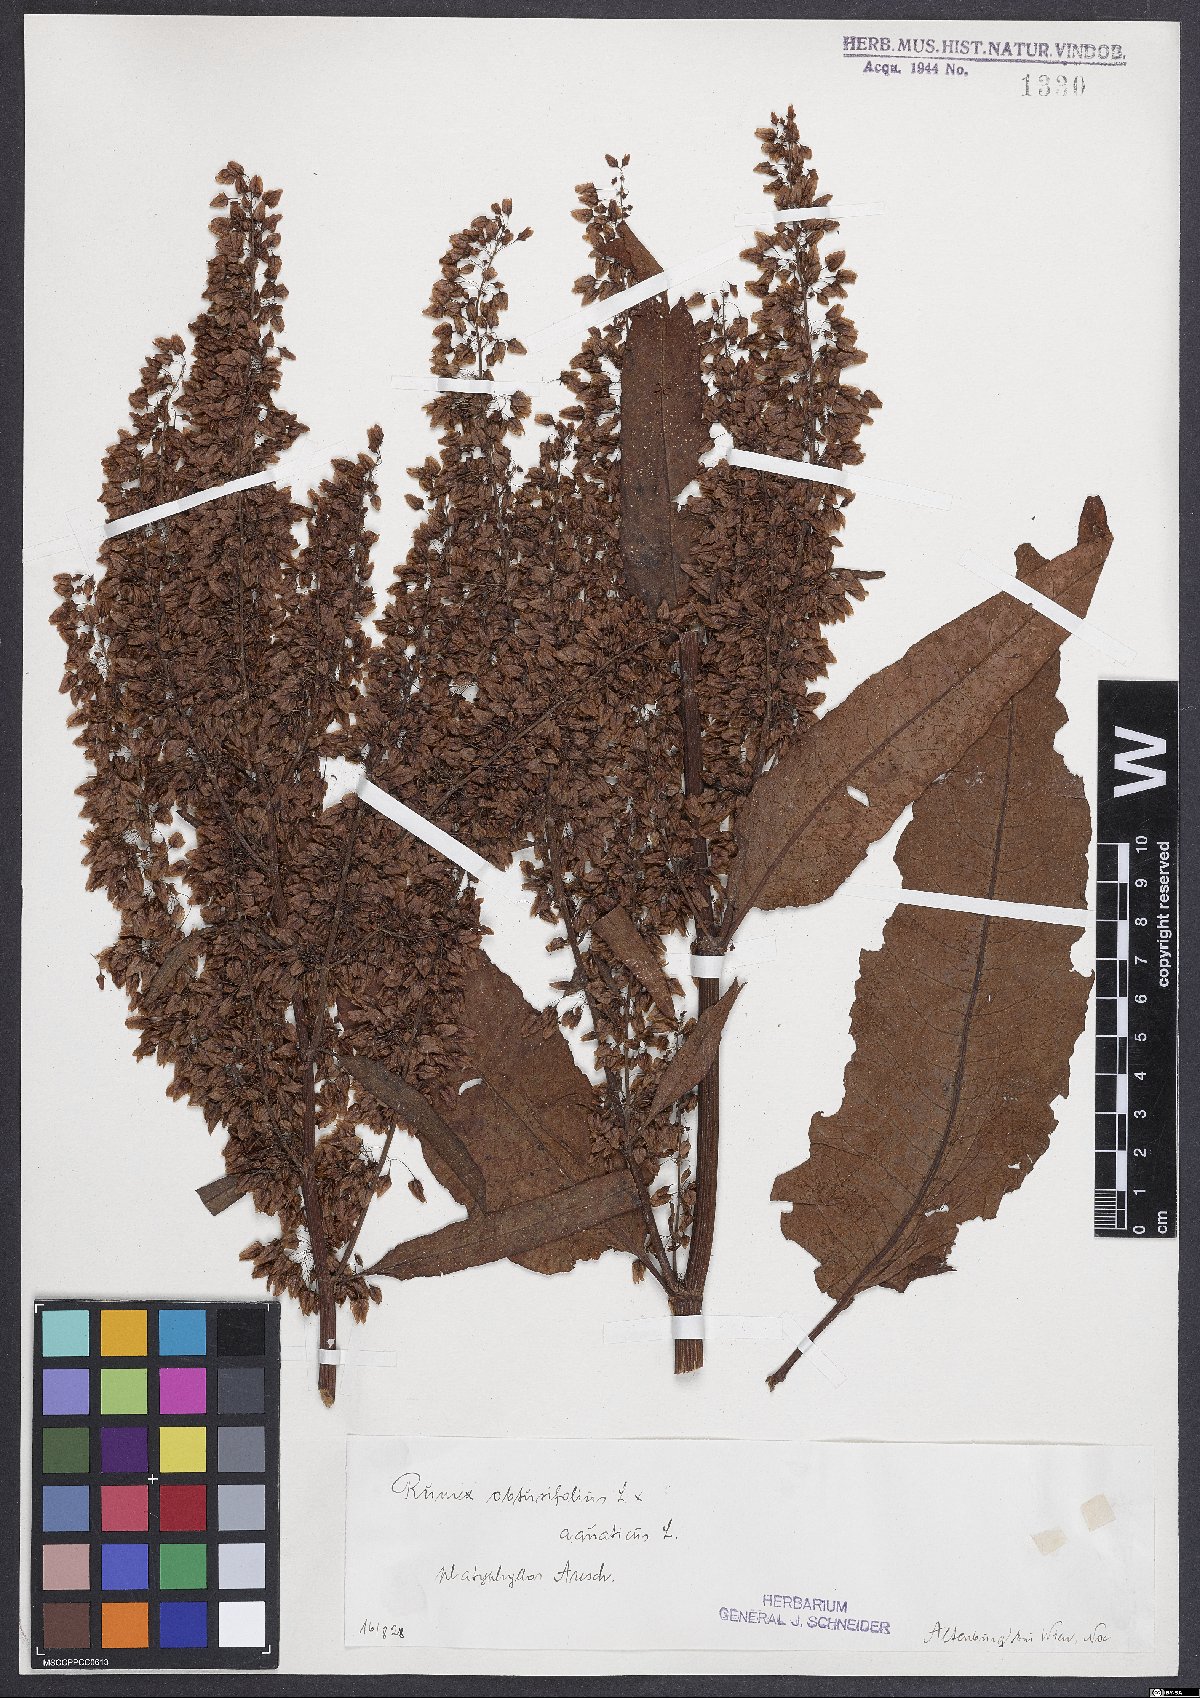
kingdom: Plantae
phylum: Tracheophyta
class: Magnoliopsida
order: Caryophyllales
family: Polygonaceae
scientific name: Polygonaceae
